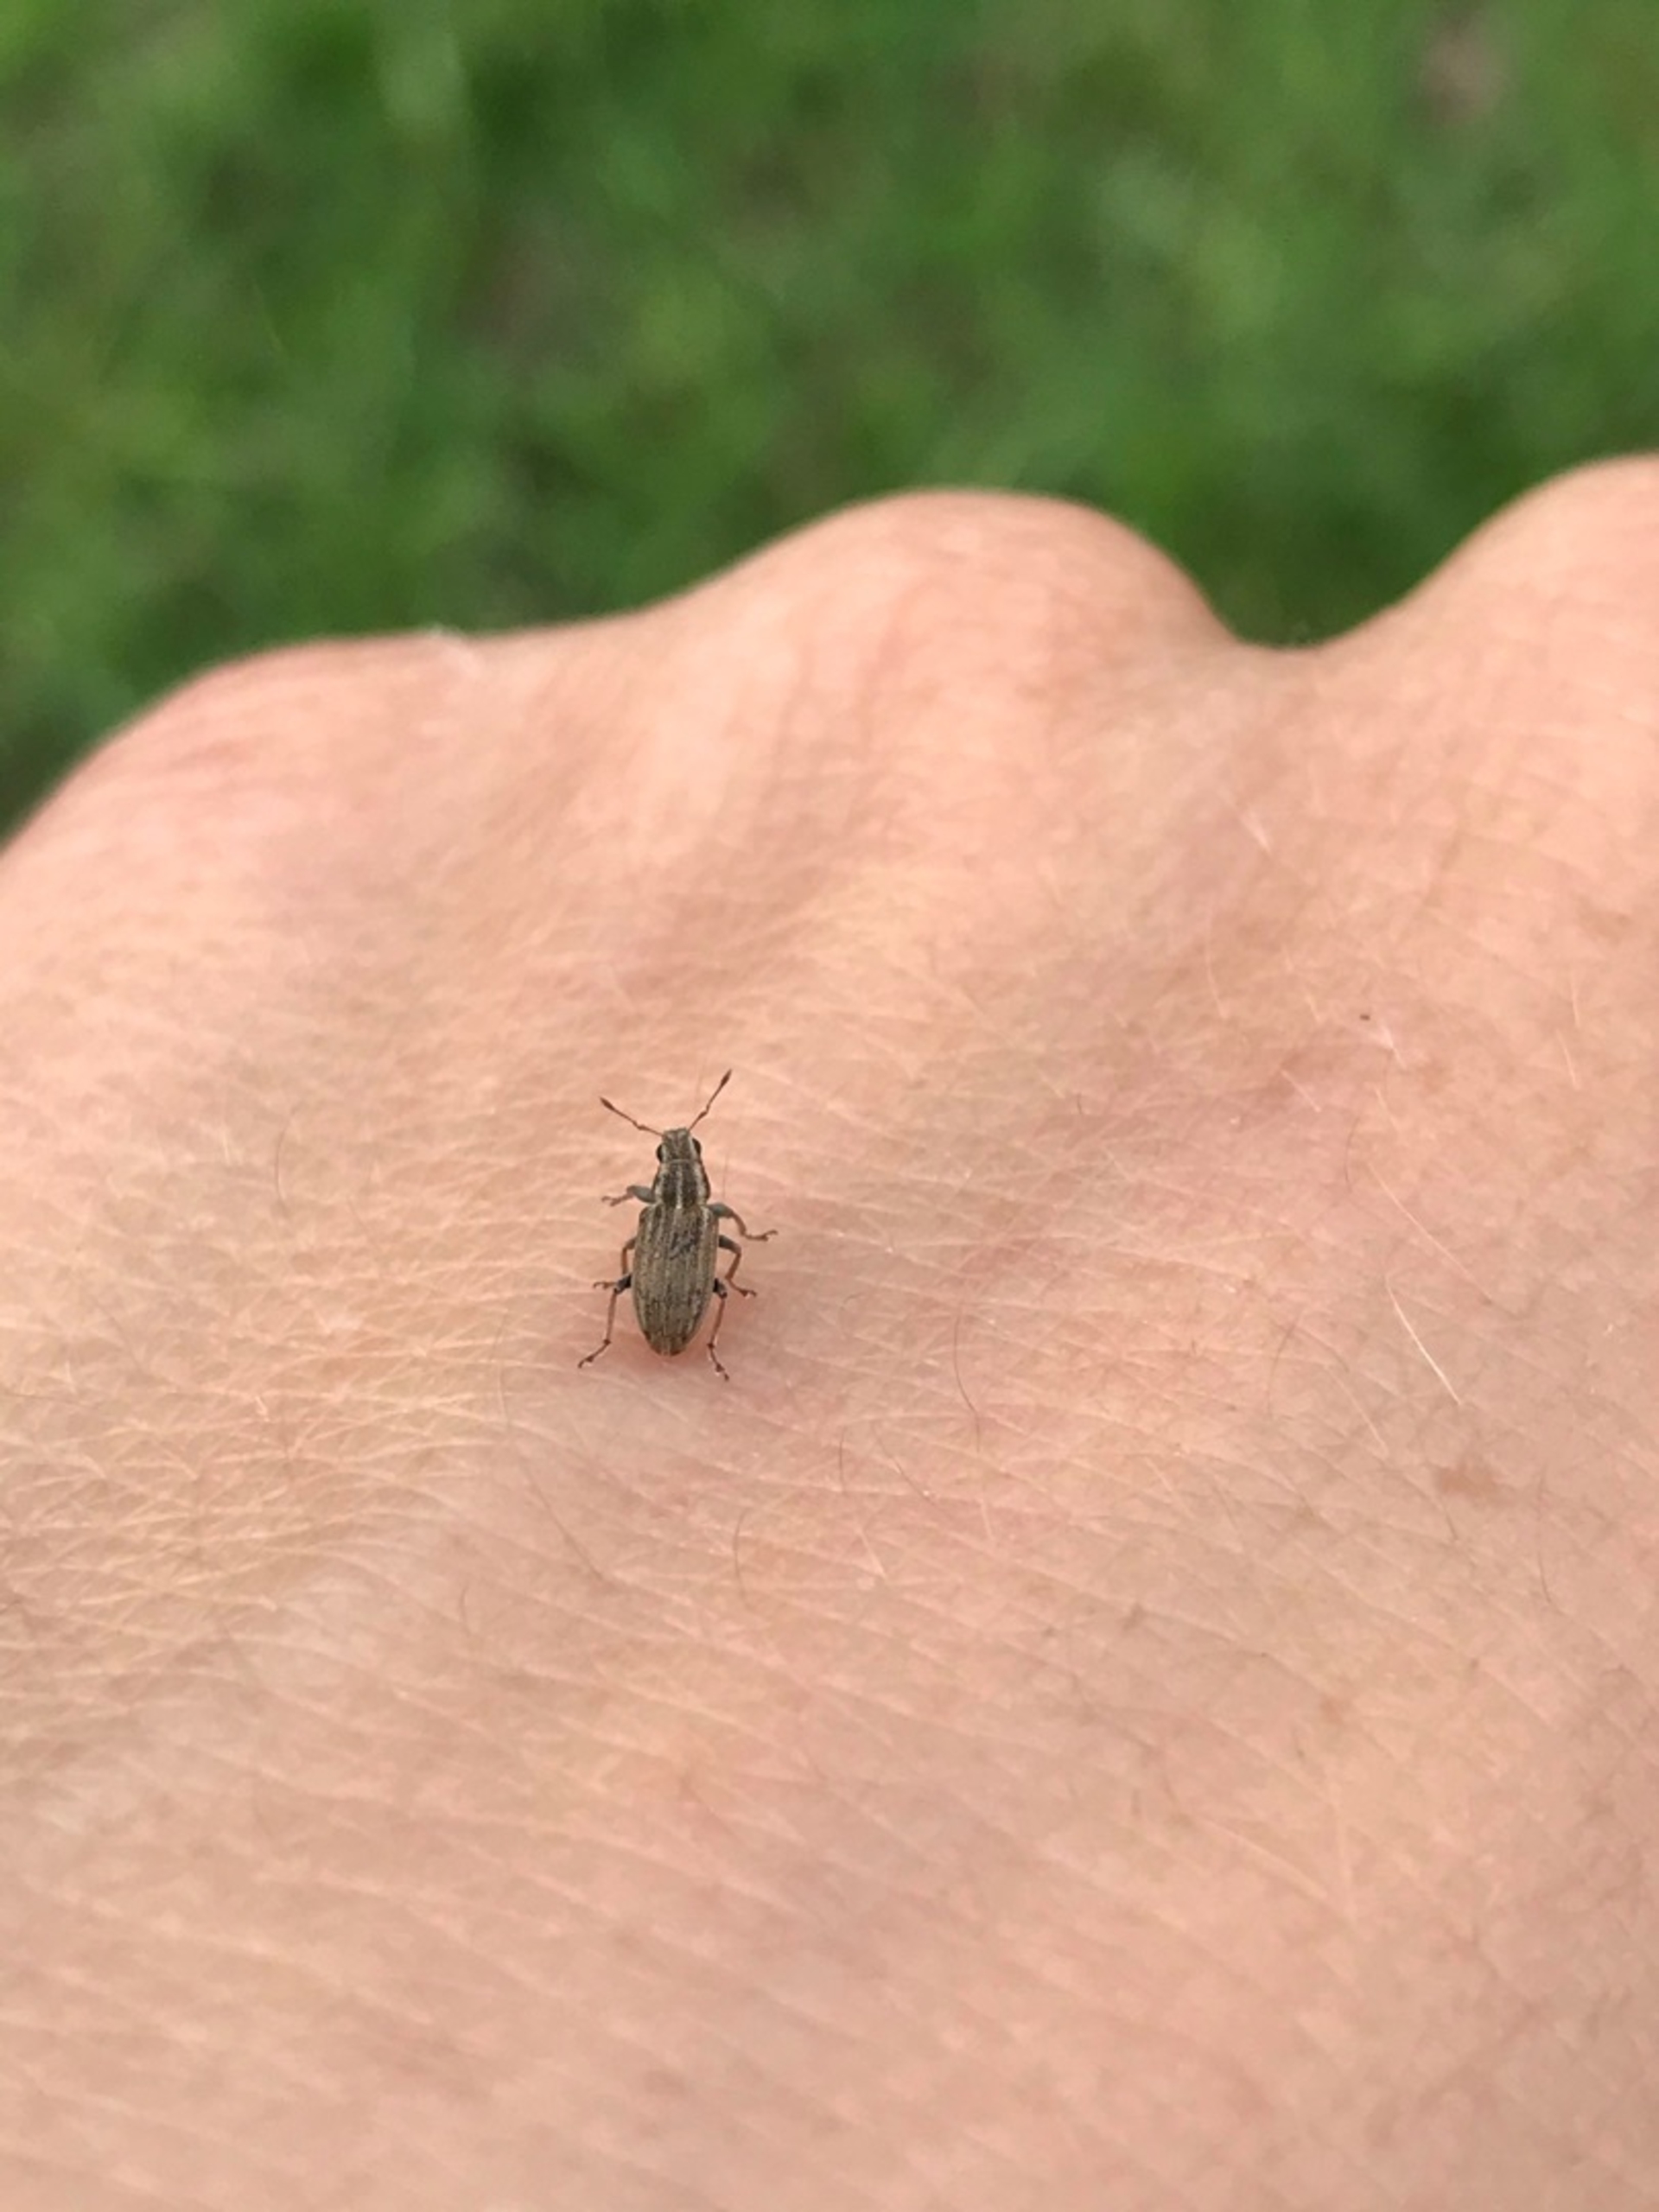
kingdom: Animalia
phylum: Arthropoda
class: Insecta
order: Coleoptera
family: Curculionidae
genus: Sitona
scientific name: Sitona lineatus
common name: Stribet bladrandbille
